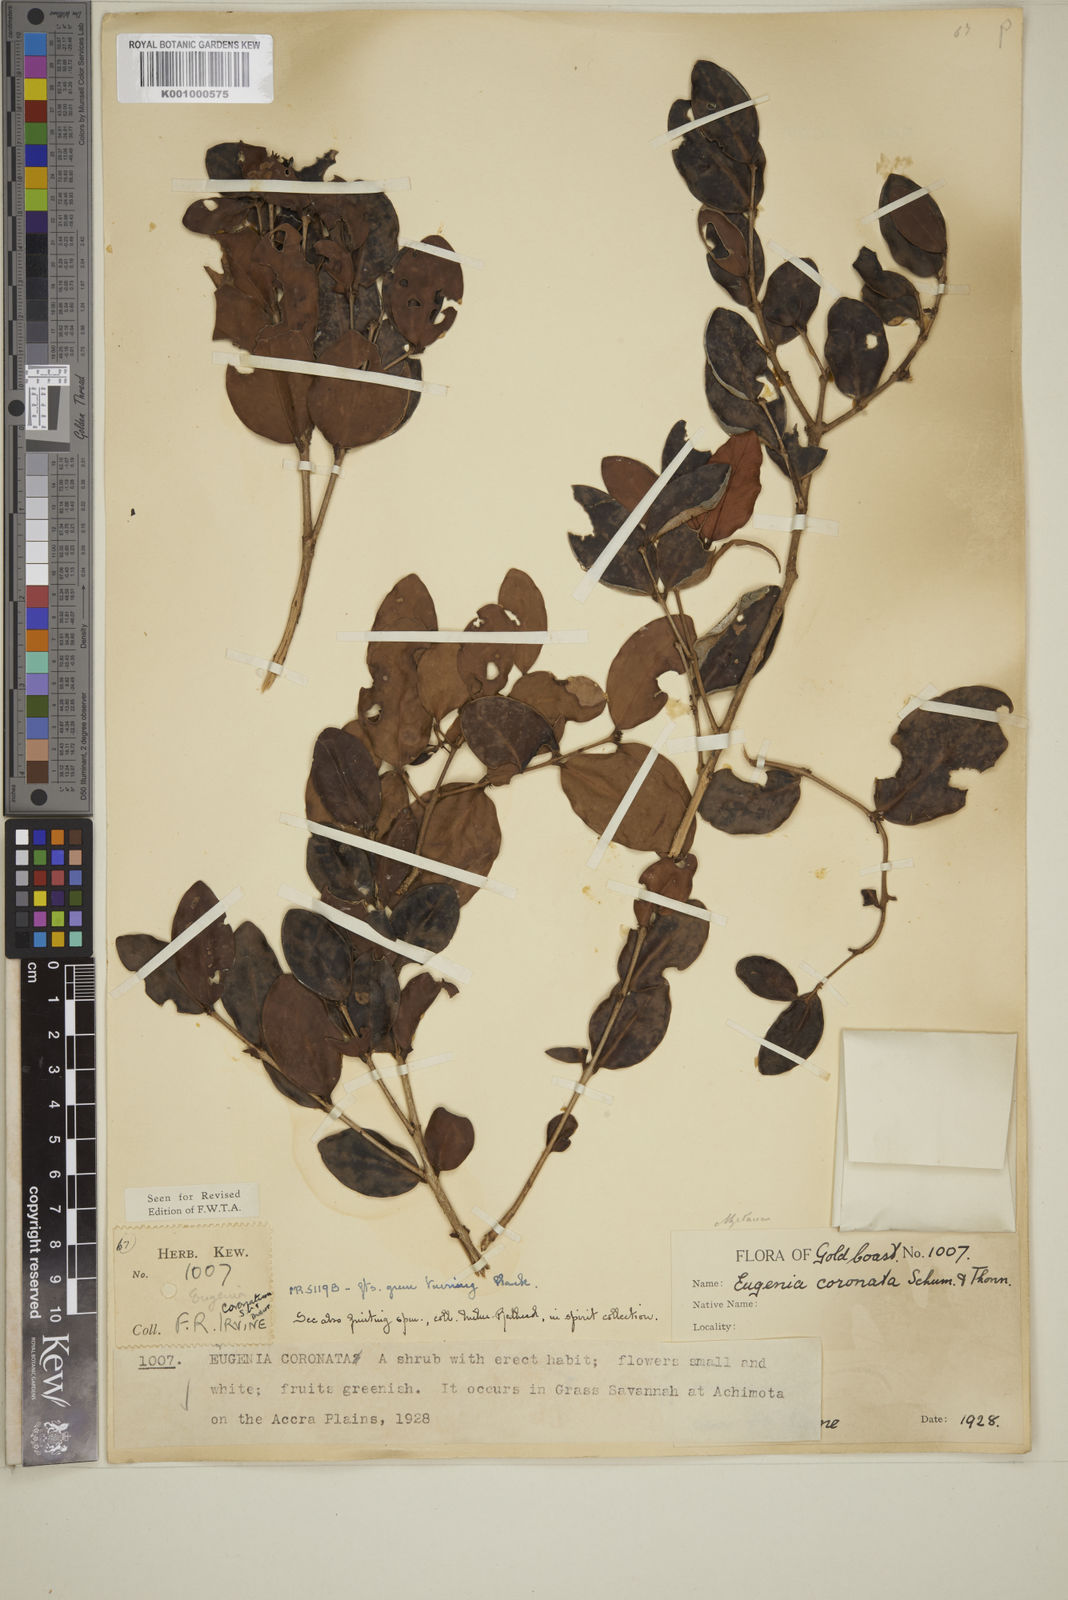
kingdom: Plantae
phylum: Tracheophyta
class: Magnoliopsida
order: Myrtales
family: Myrtaceae
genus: Eugenia
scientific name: Eugenia coronata
